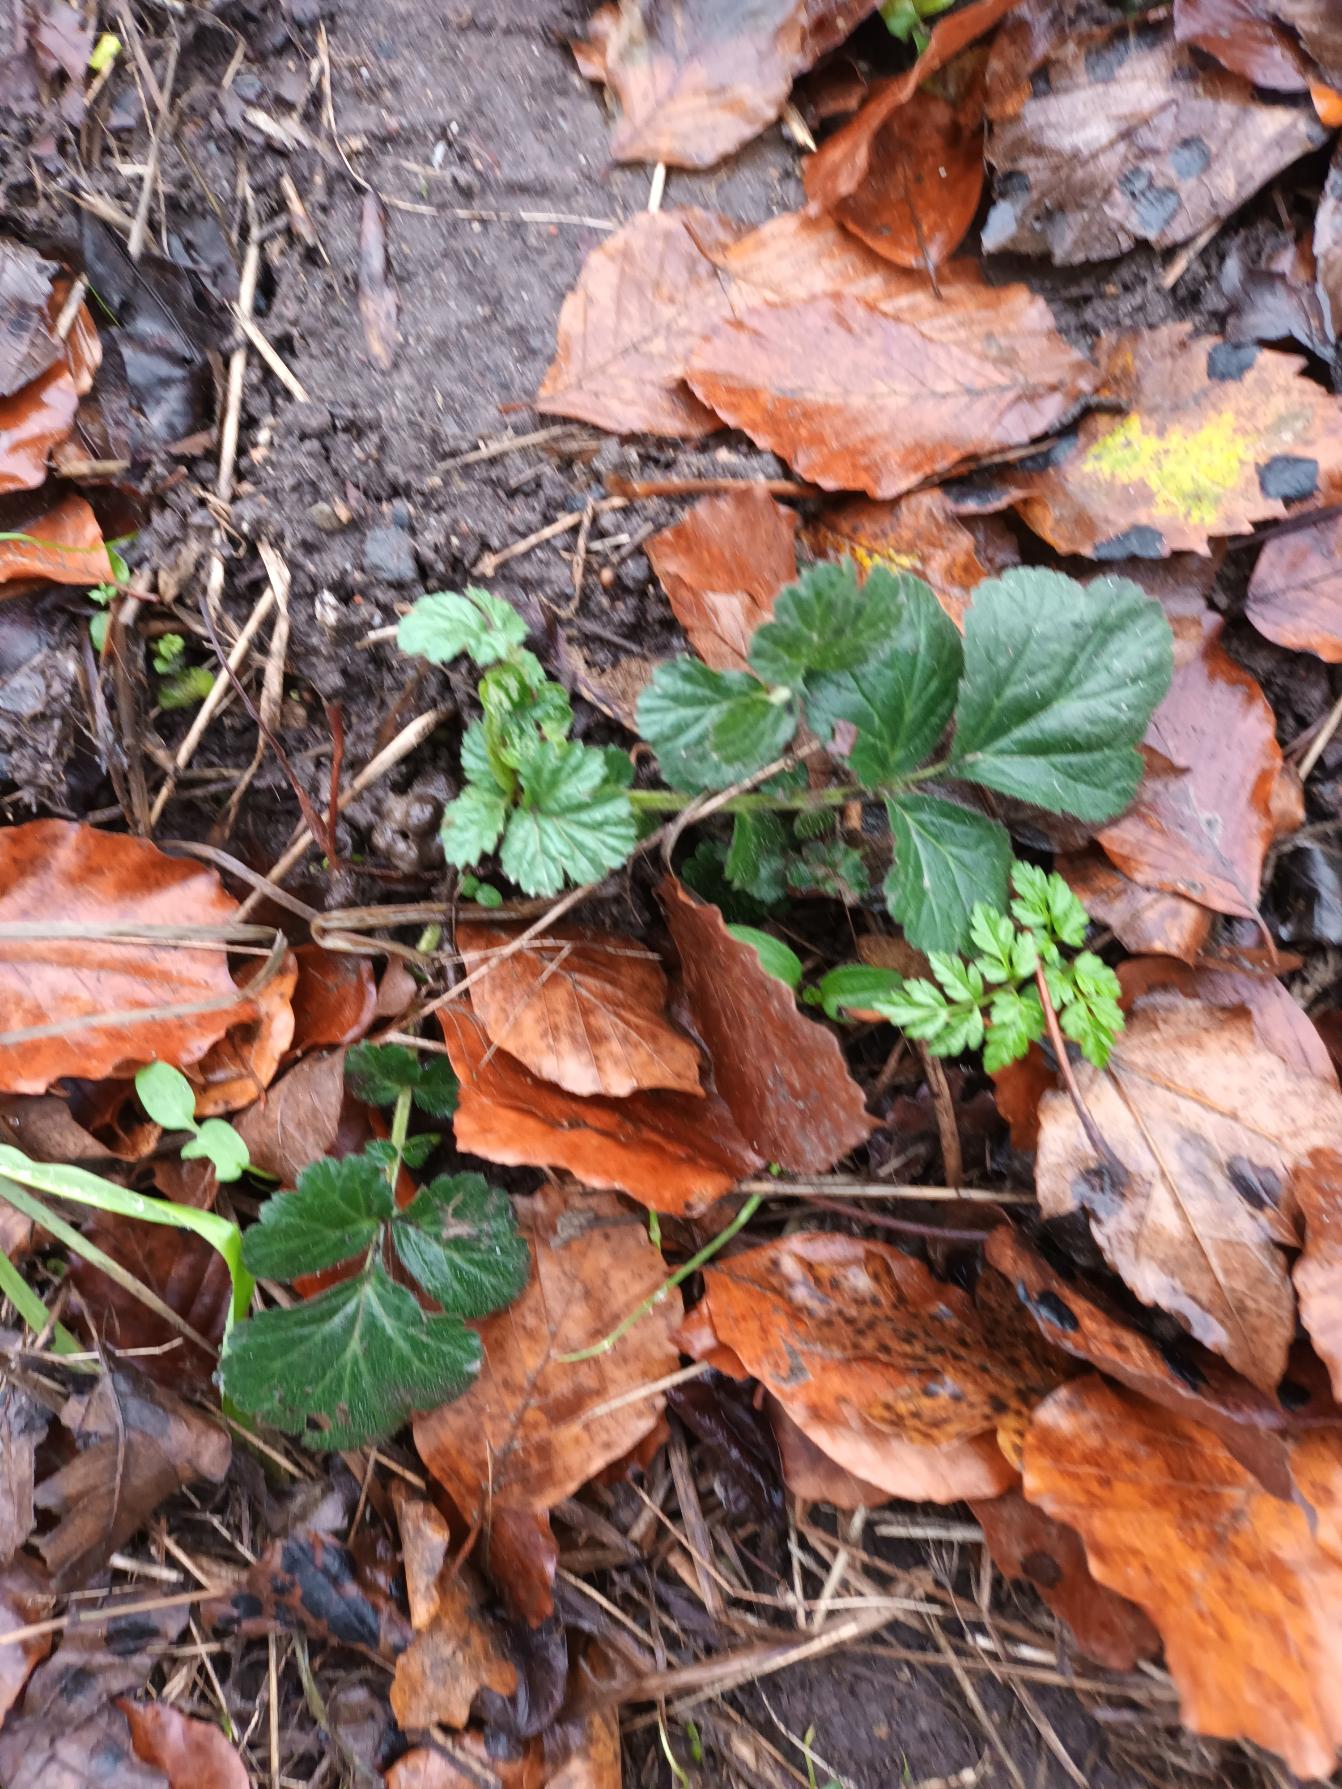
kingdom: Plantae
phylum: Tracheophyta
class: Magnoliopsida
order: Rosales
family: Rosaceae
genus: Geum
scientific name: Geum urbanum
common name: Feber-nellikerod
